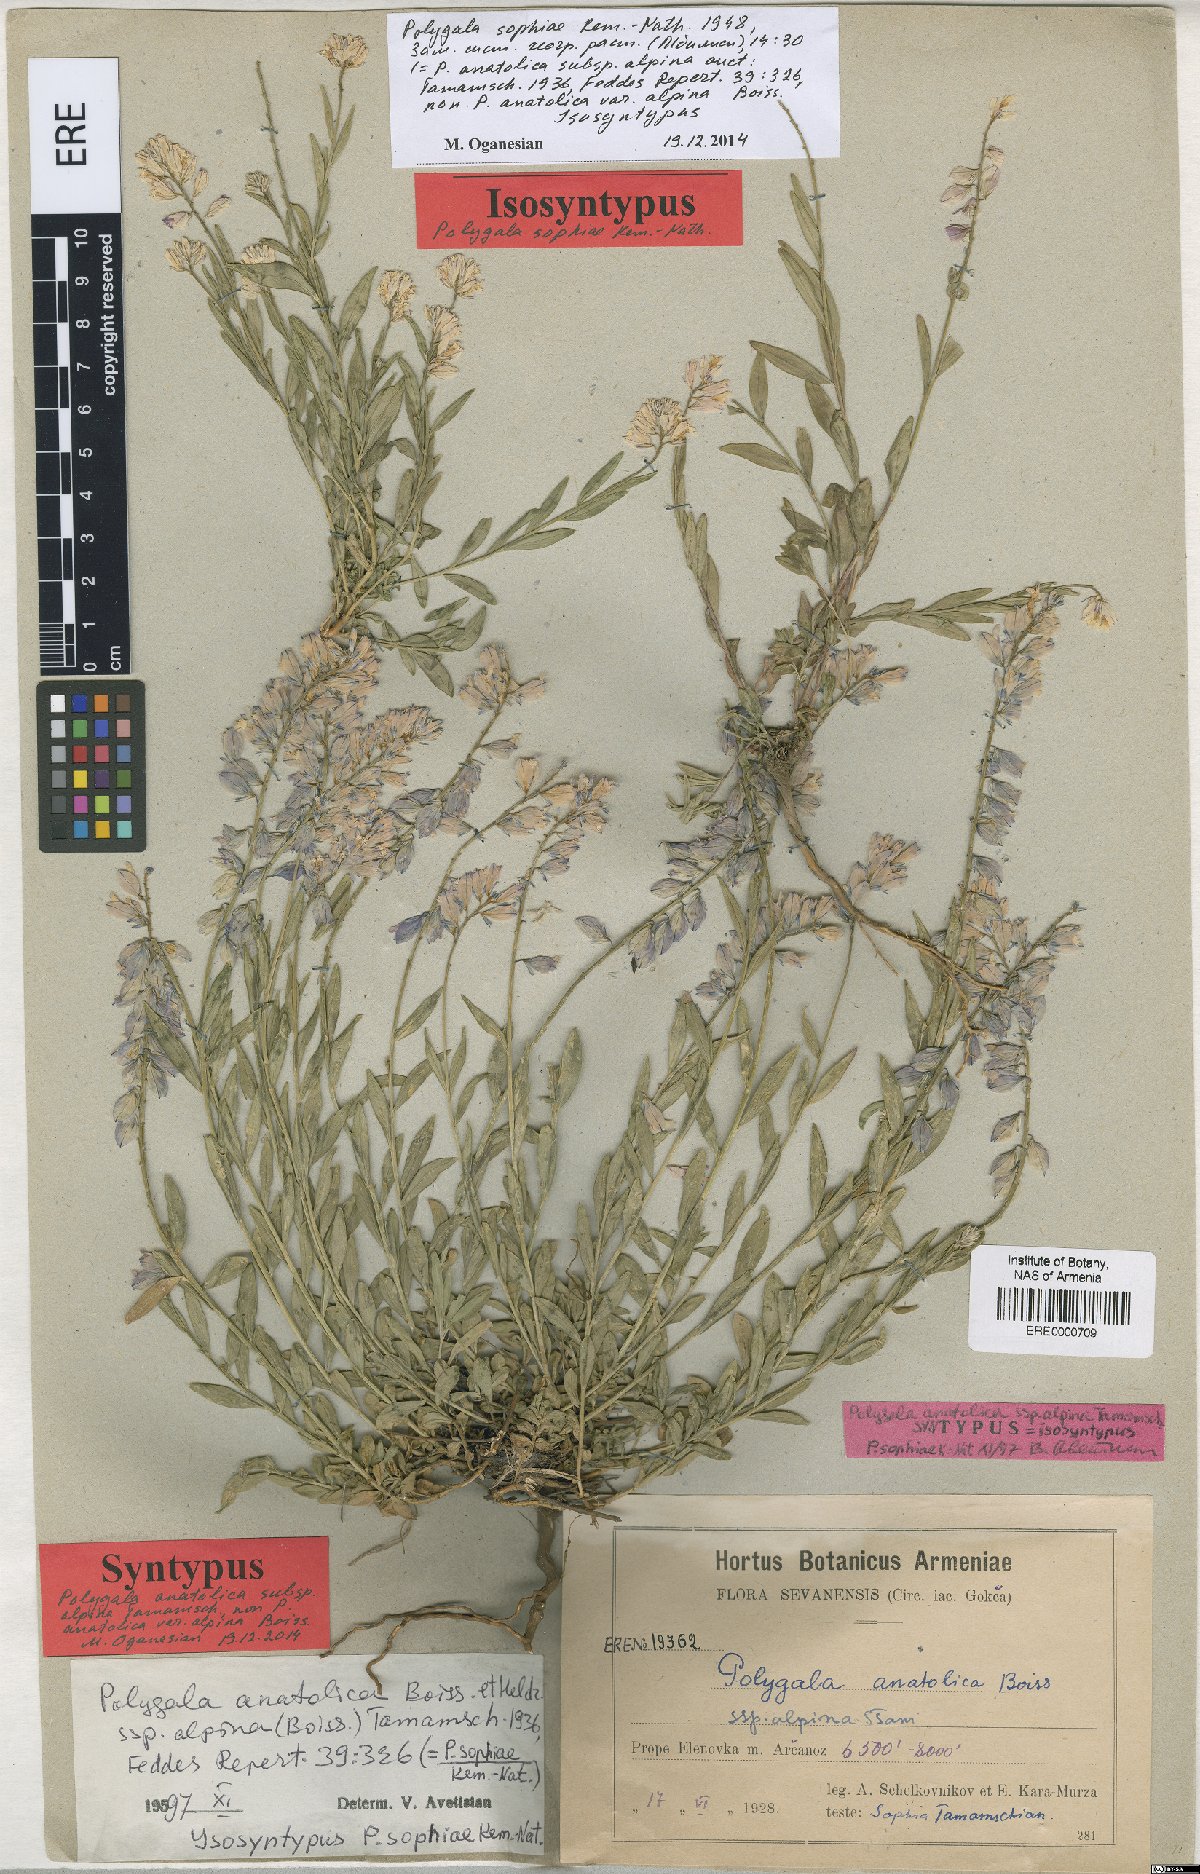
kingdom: Plantae
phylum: Tracheophyta
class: Magnoliopsida
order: Fabales
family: Polygalaceae
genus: Polygala
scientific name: Polygala sophiae
